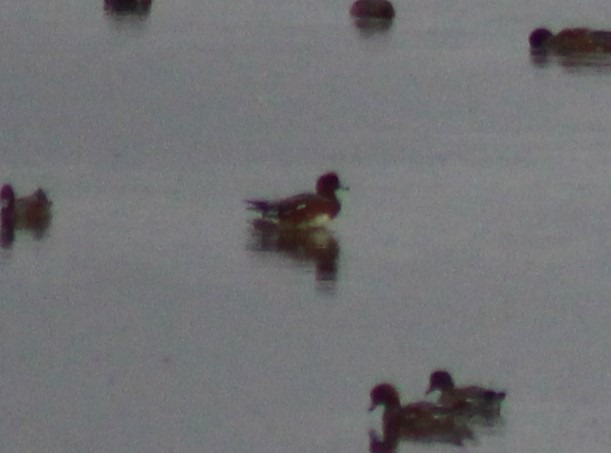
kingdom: Animalia
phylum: Chordata
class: Aves
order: Anseriformes
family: Anatidae
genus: Mareca
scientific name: Mareca penelope
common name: Pibeand
